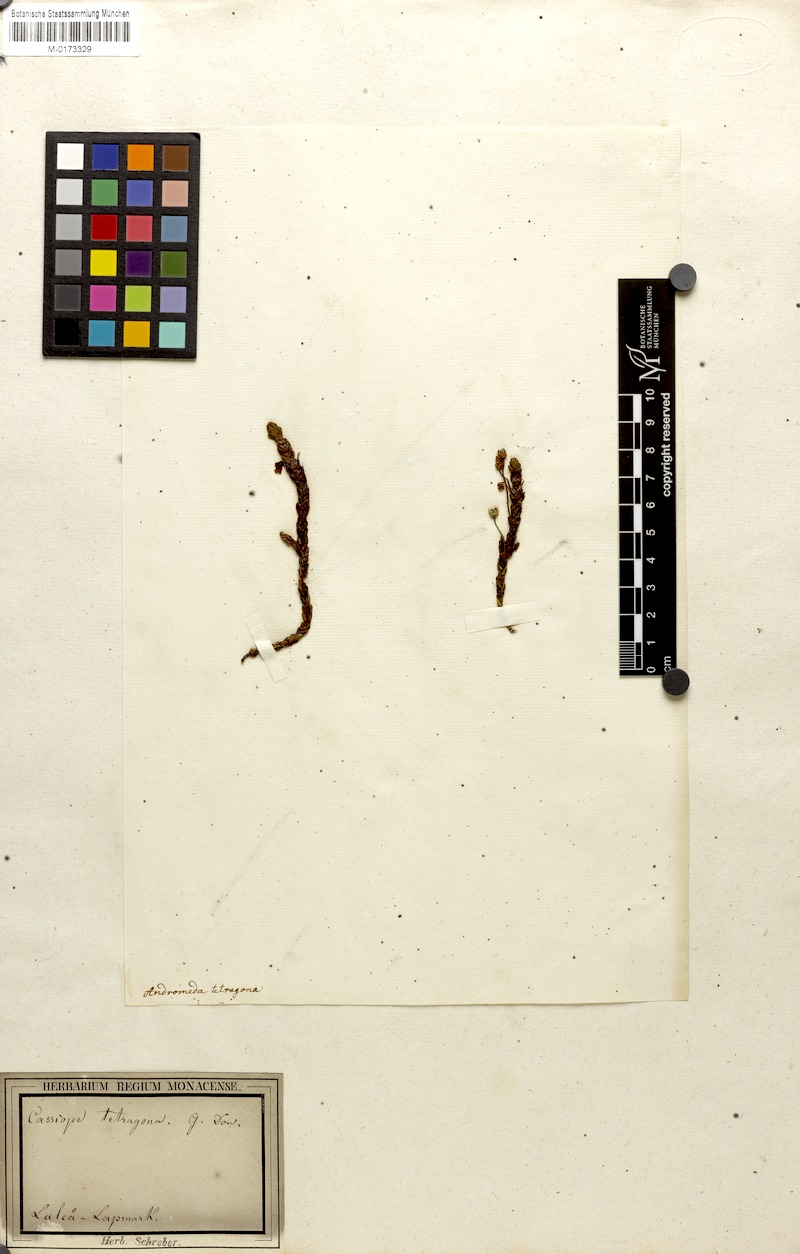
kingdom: Plantae
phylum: Tracheophyta
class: Magnoliopsida
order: Ericales
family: Ericaceae
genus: Cassiope
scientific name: Cassiope tetragona
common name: Arctic bell heather
